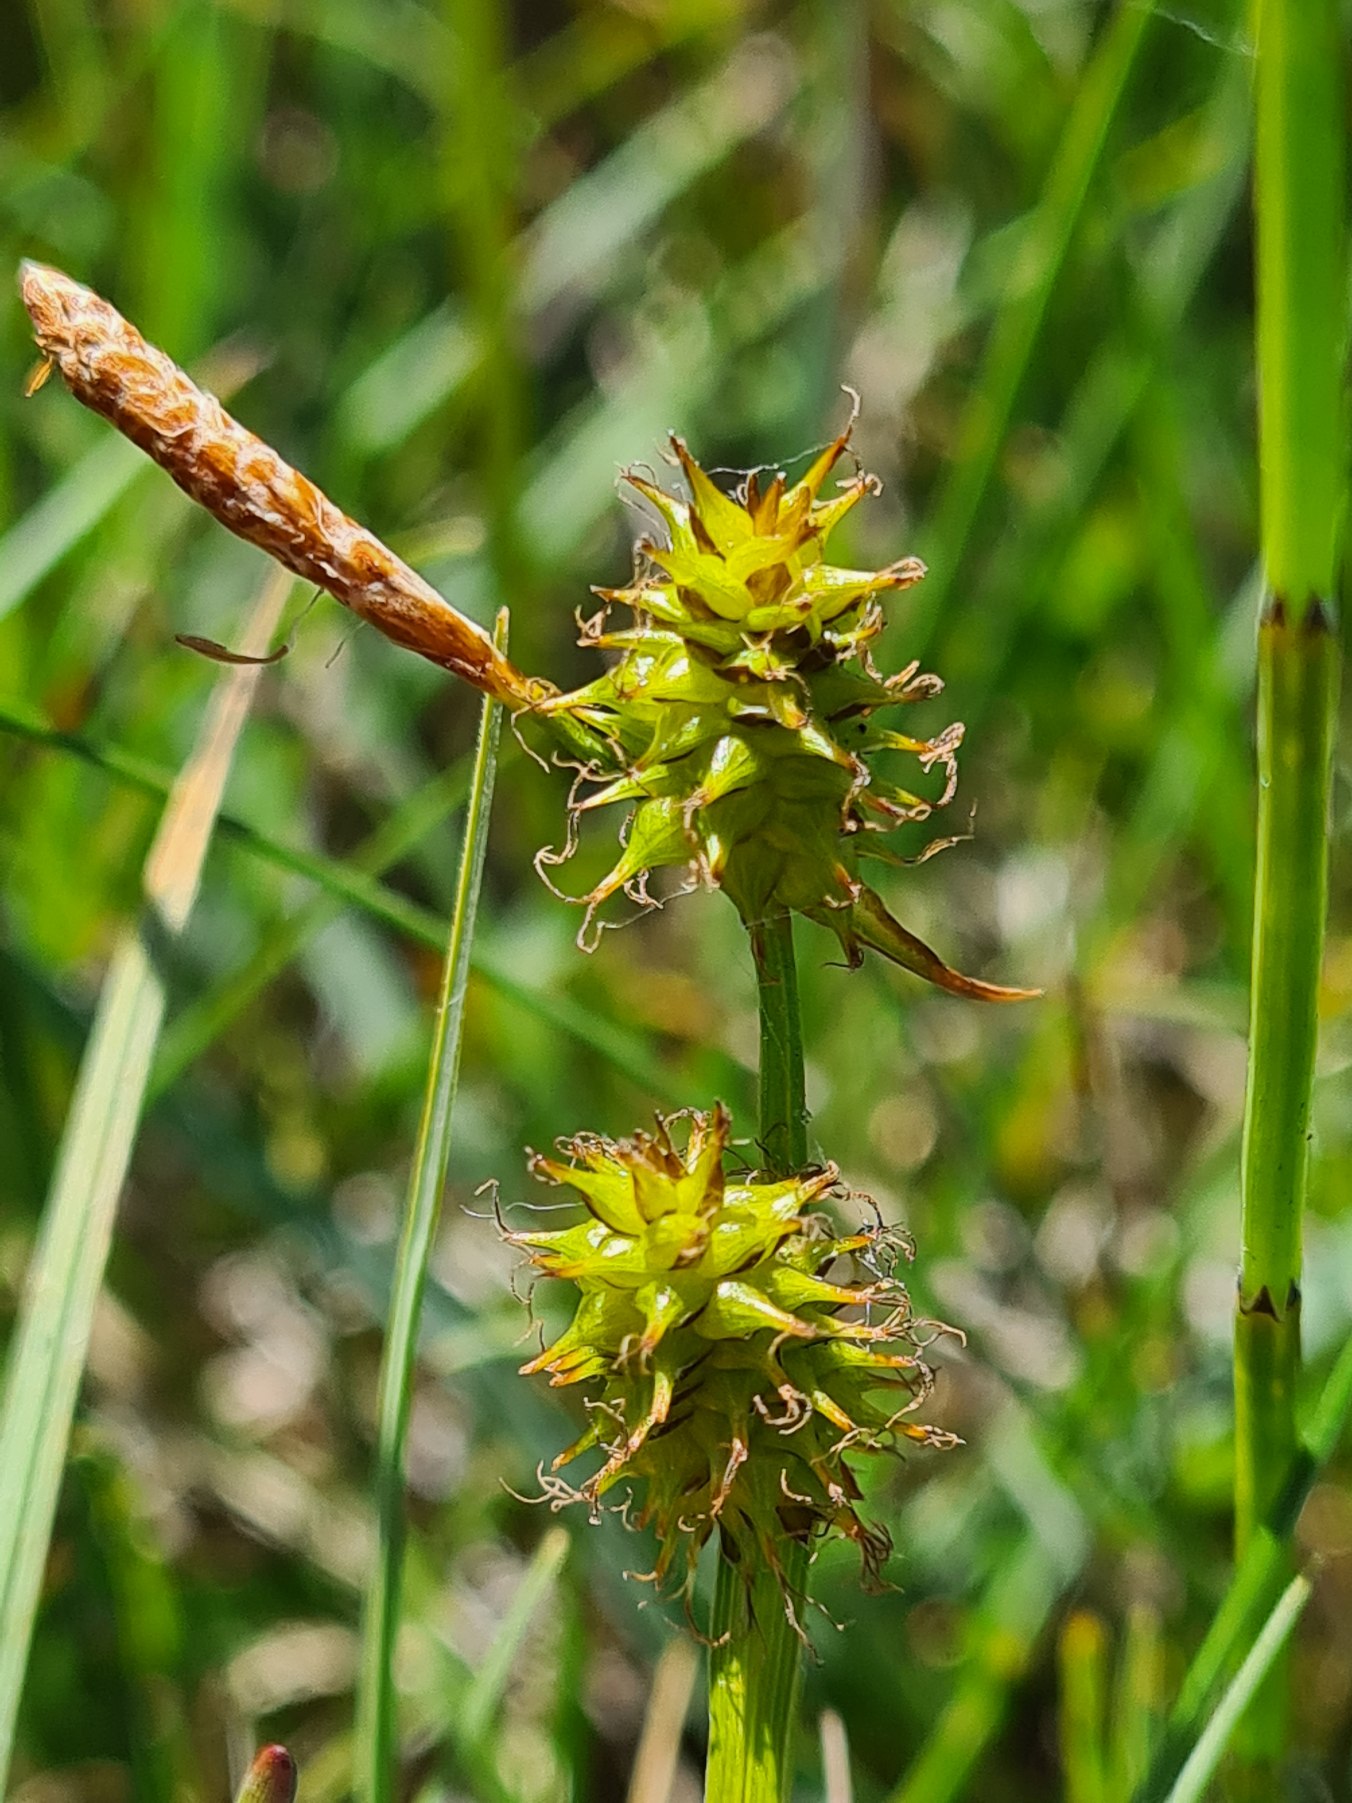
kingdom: Plantae
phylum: Tracheophyta
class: Liliopsida
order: Poales
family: Cyperaceae
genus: Carex
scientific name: Carex lepidocarpa
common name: Krognæb-star
